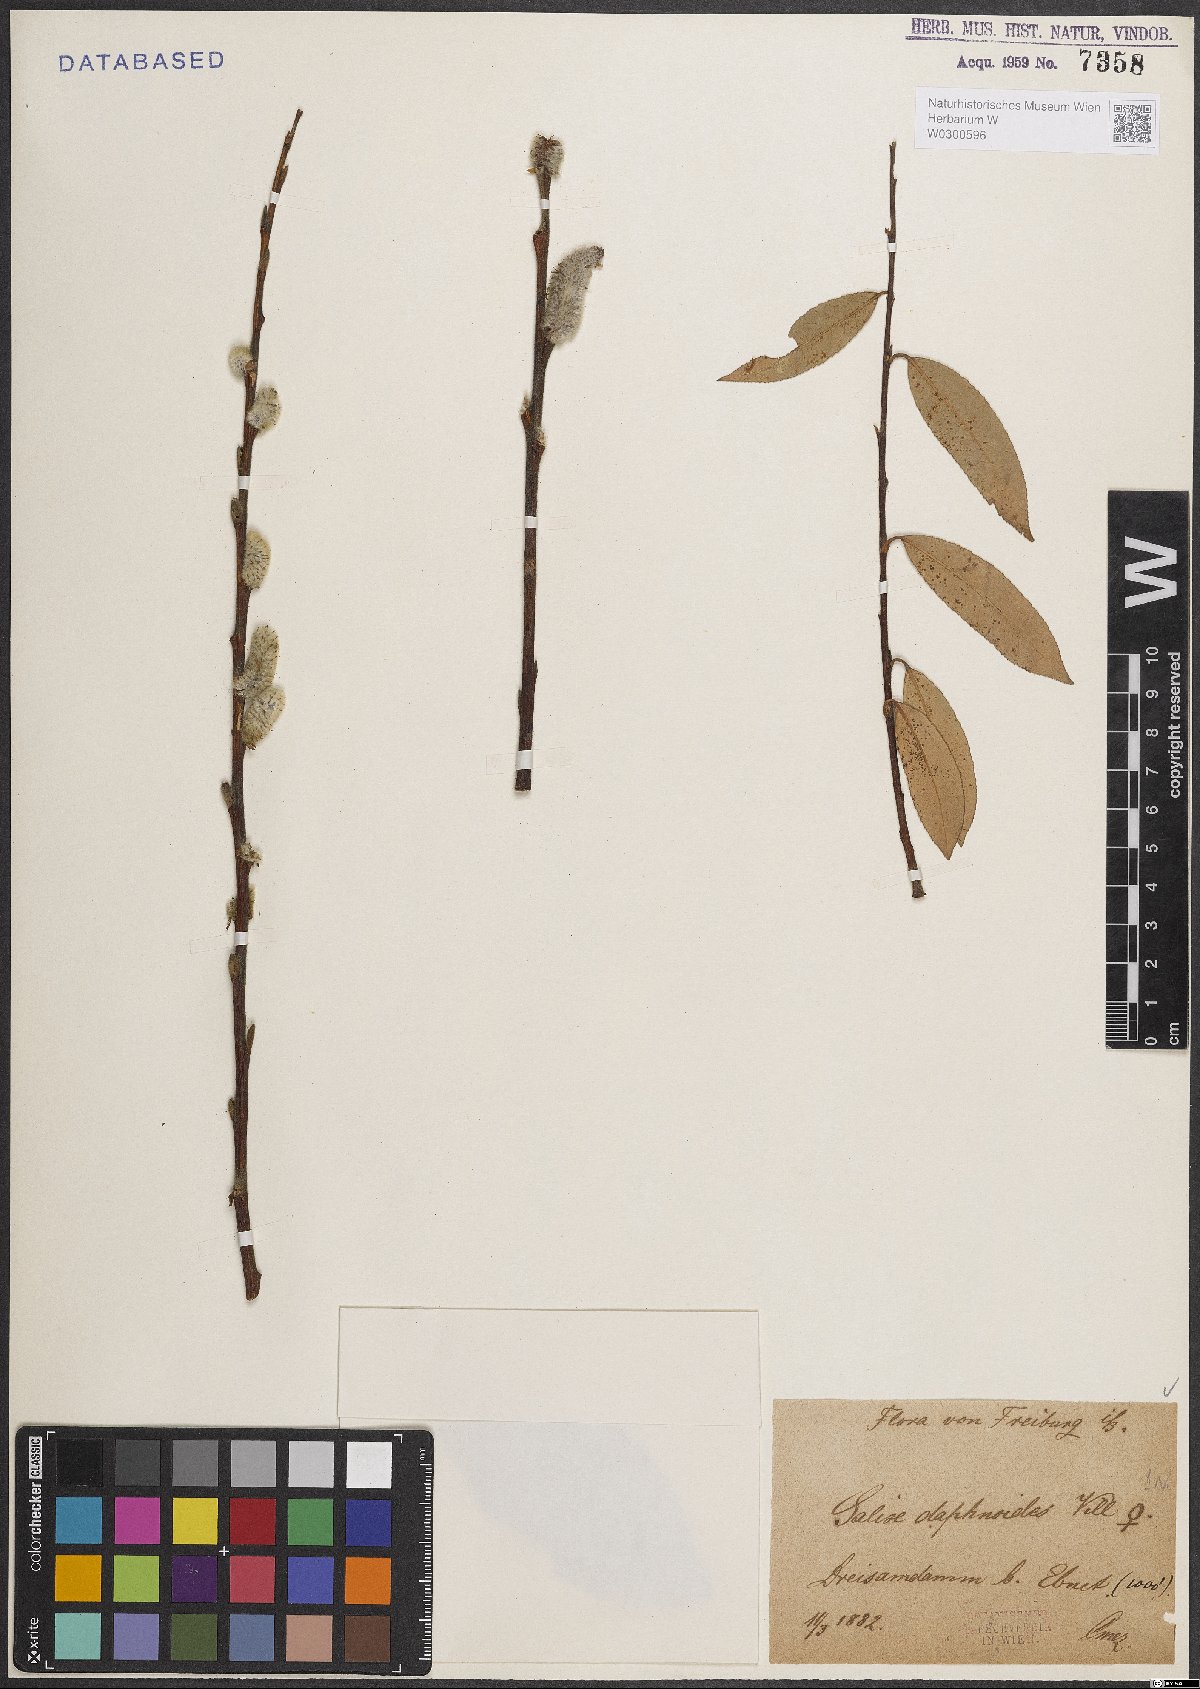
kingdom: Plantae
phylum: Tracheophyta
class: Magnoliopsida
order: Malpighiales
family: Salicaceae
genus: Salix
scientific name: Salix daphnoides
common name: European violet-willow
